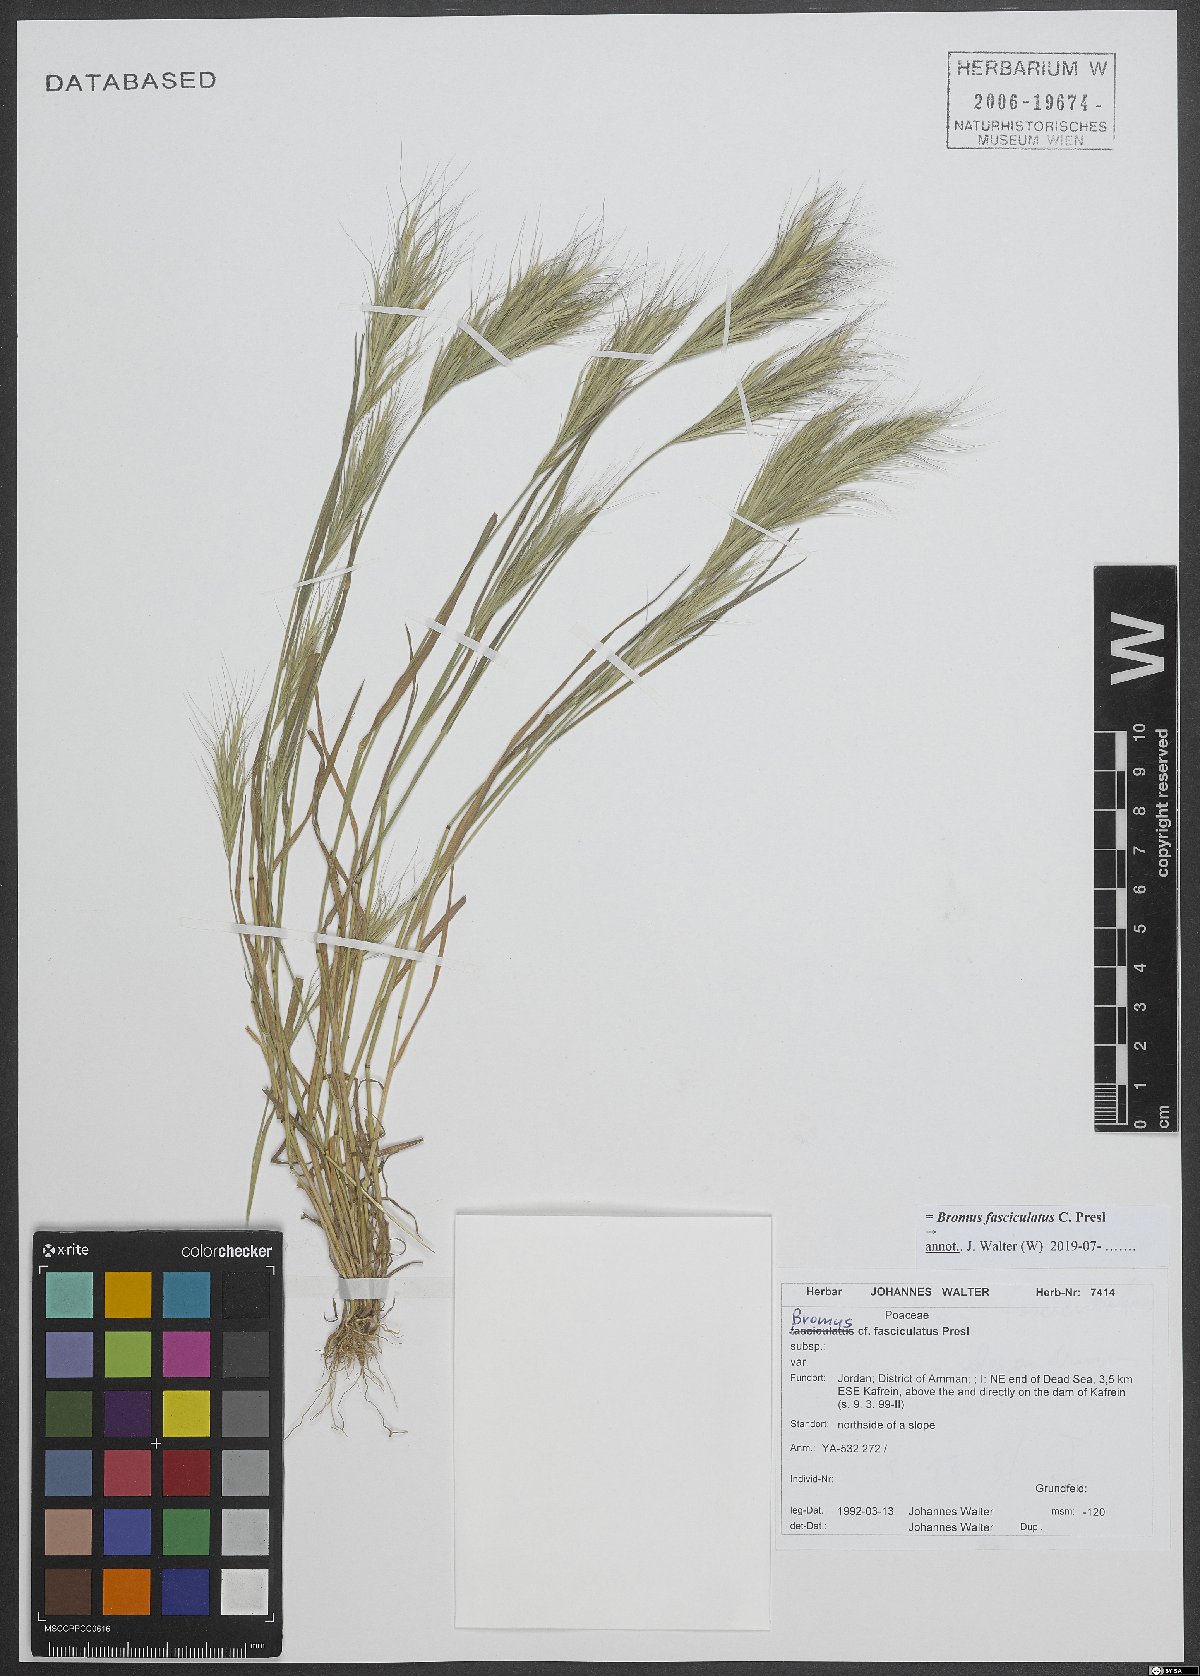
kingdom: Plantae
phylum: Tracheophyta
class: Liliopsida
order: Poales
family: Poaceae
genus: Bromus
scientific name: Bromus fasciculatus
